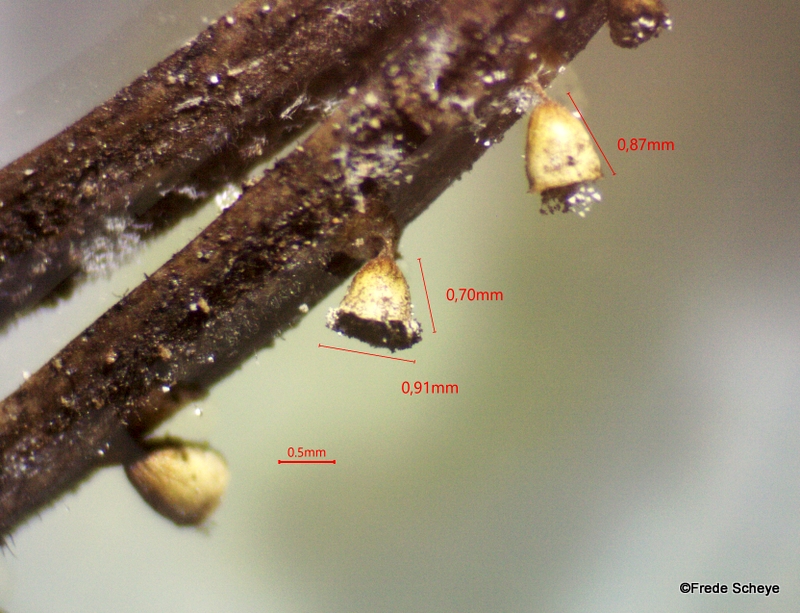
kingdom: Protozoa
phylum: Mycetozoa
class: Myxomycetes
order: Physarales
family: Physaraceae
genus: Craterium
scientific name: Craterium minutum
